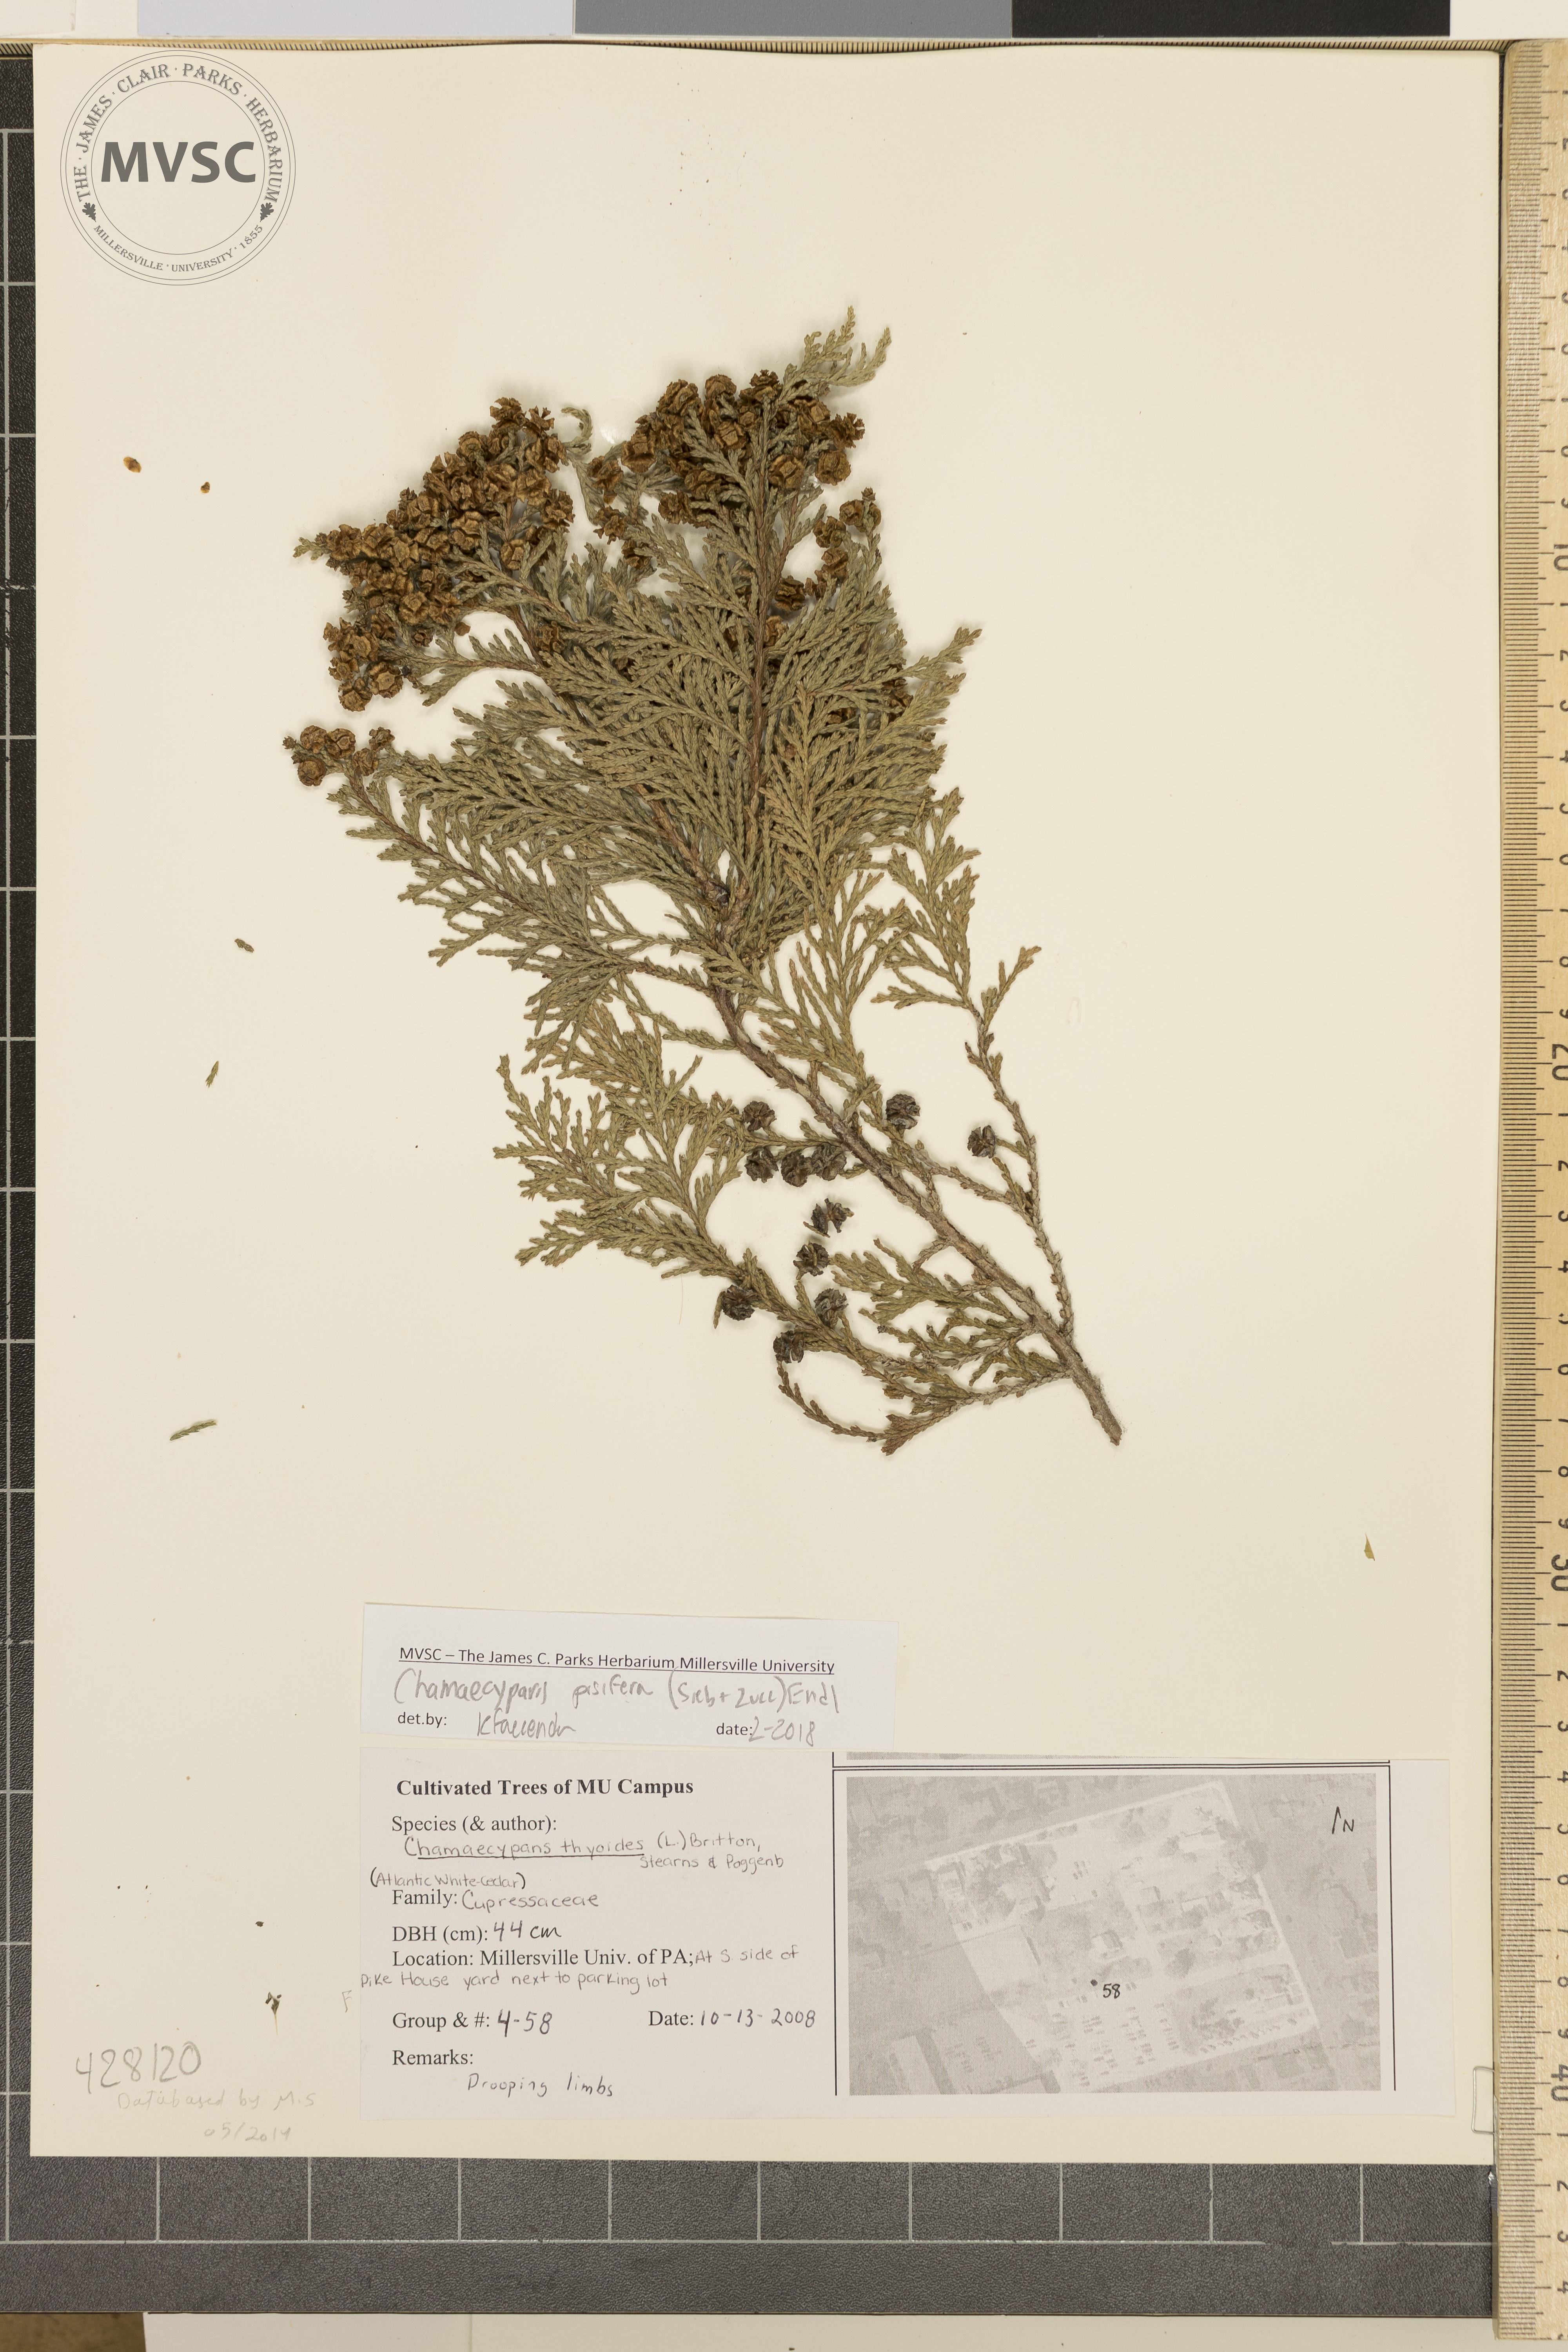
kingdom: Plantae
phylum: Tracheophyta
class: Pinopsida
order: Pinales
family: Cupressaceae
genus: Chamaecyparis
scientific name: Chamaecyparis pisifera
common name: Sawara cypress
